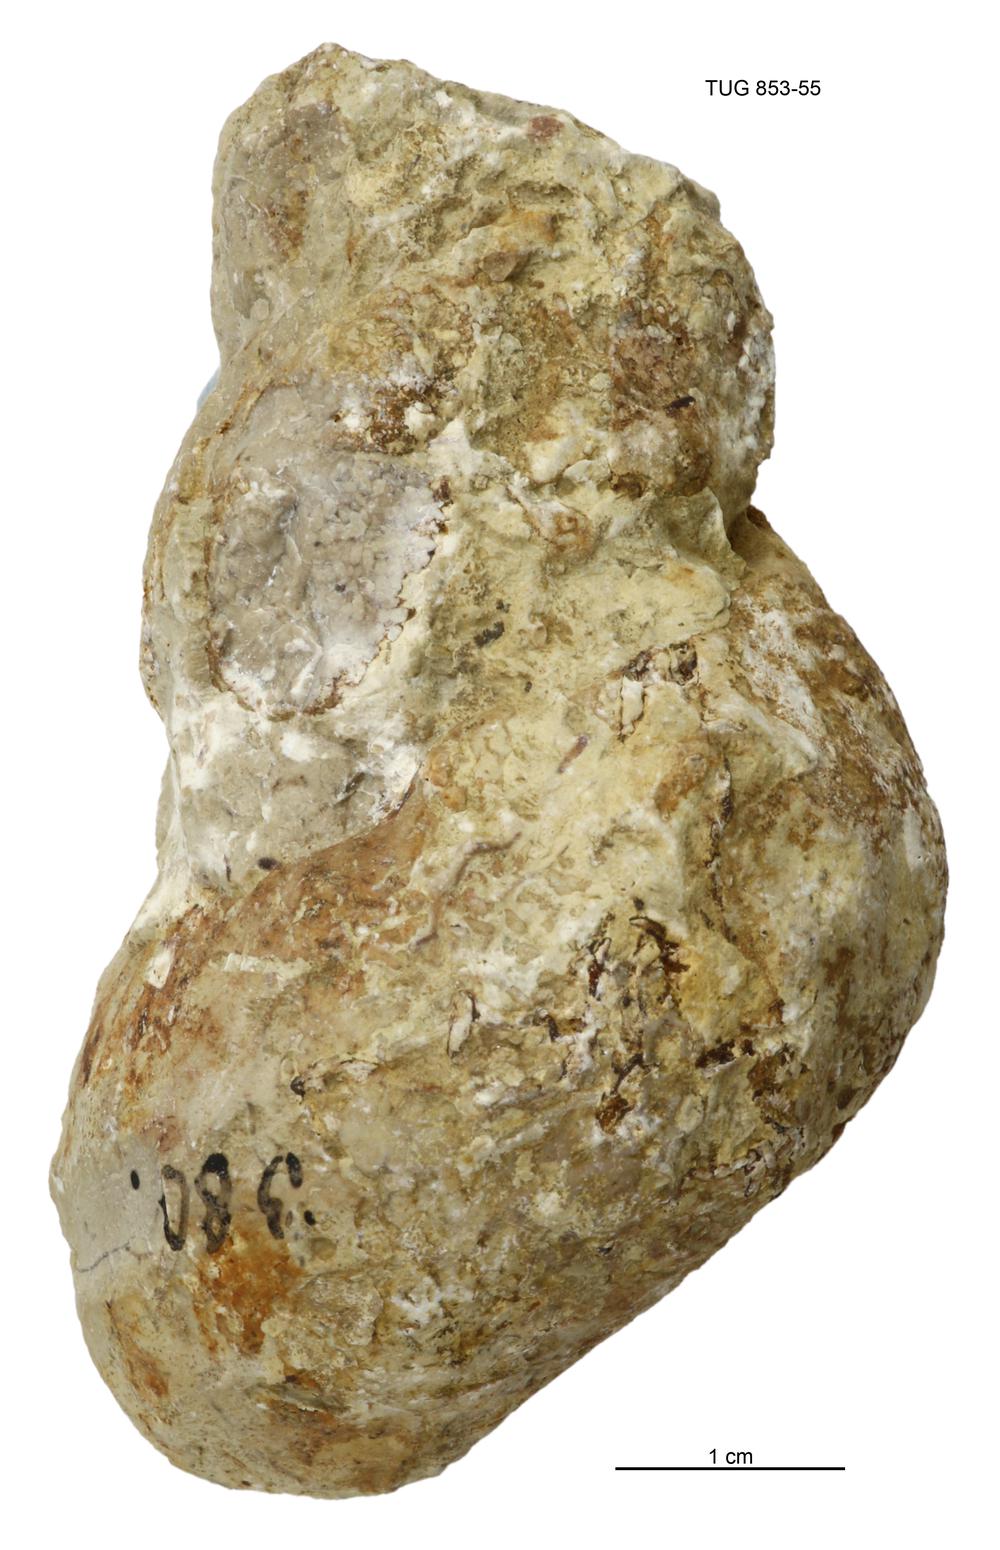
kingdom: Animalia
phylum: Mollusca
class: Gastropoda
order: Pleurotomariida
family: Murchisoniidae
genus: Murchisonia
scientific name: Murchisonia insignis
